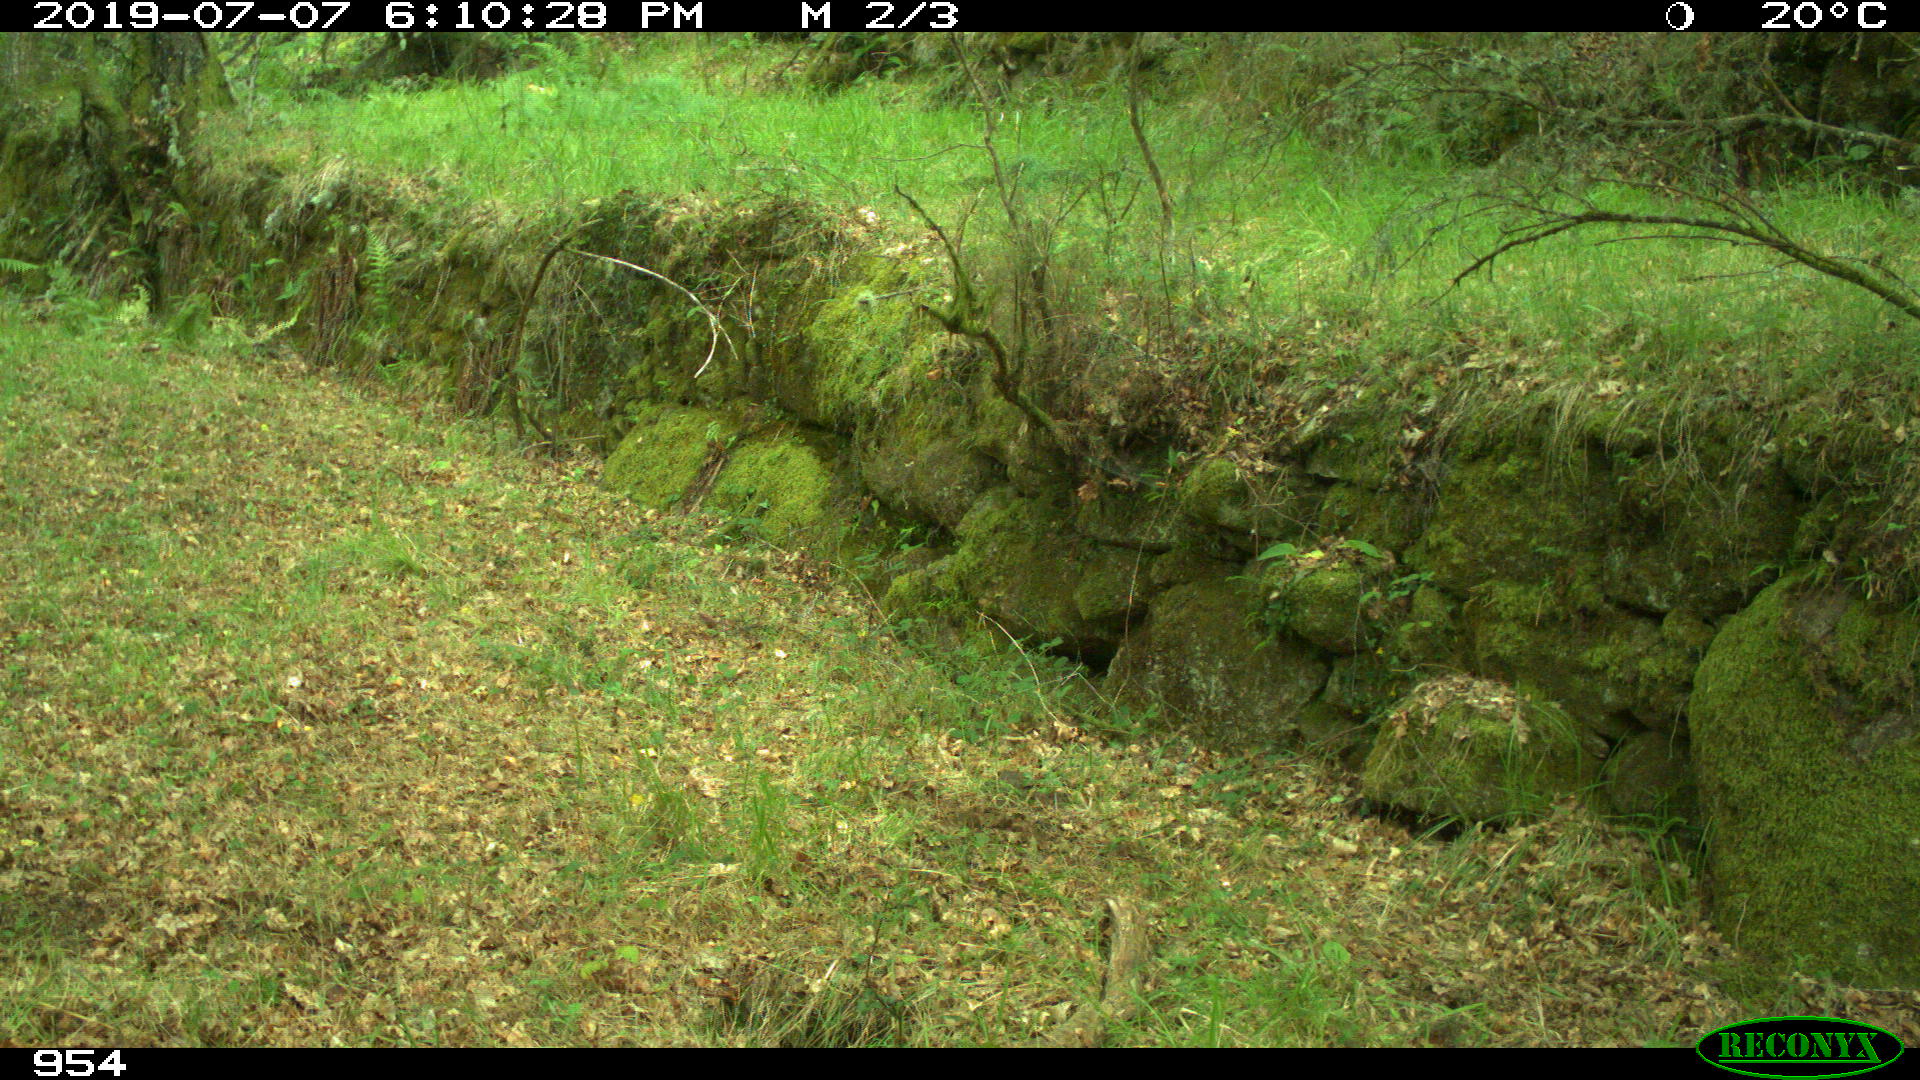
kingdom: Animalia
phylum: Chordata
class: Mammalia
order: Artiodactyla
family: Cervidae
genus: Capreolus
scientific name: Capreolus capreolus
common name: Western roe deer
